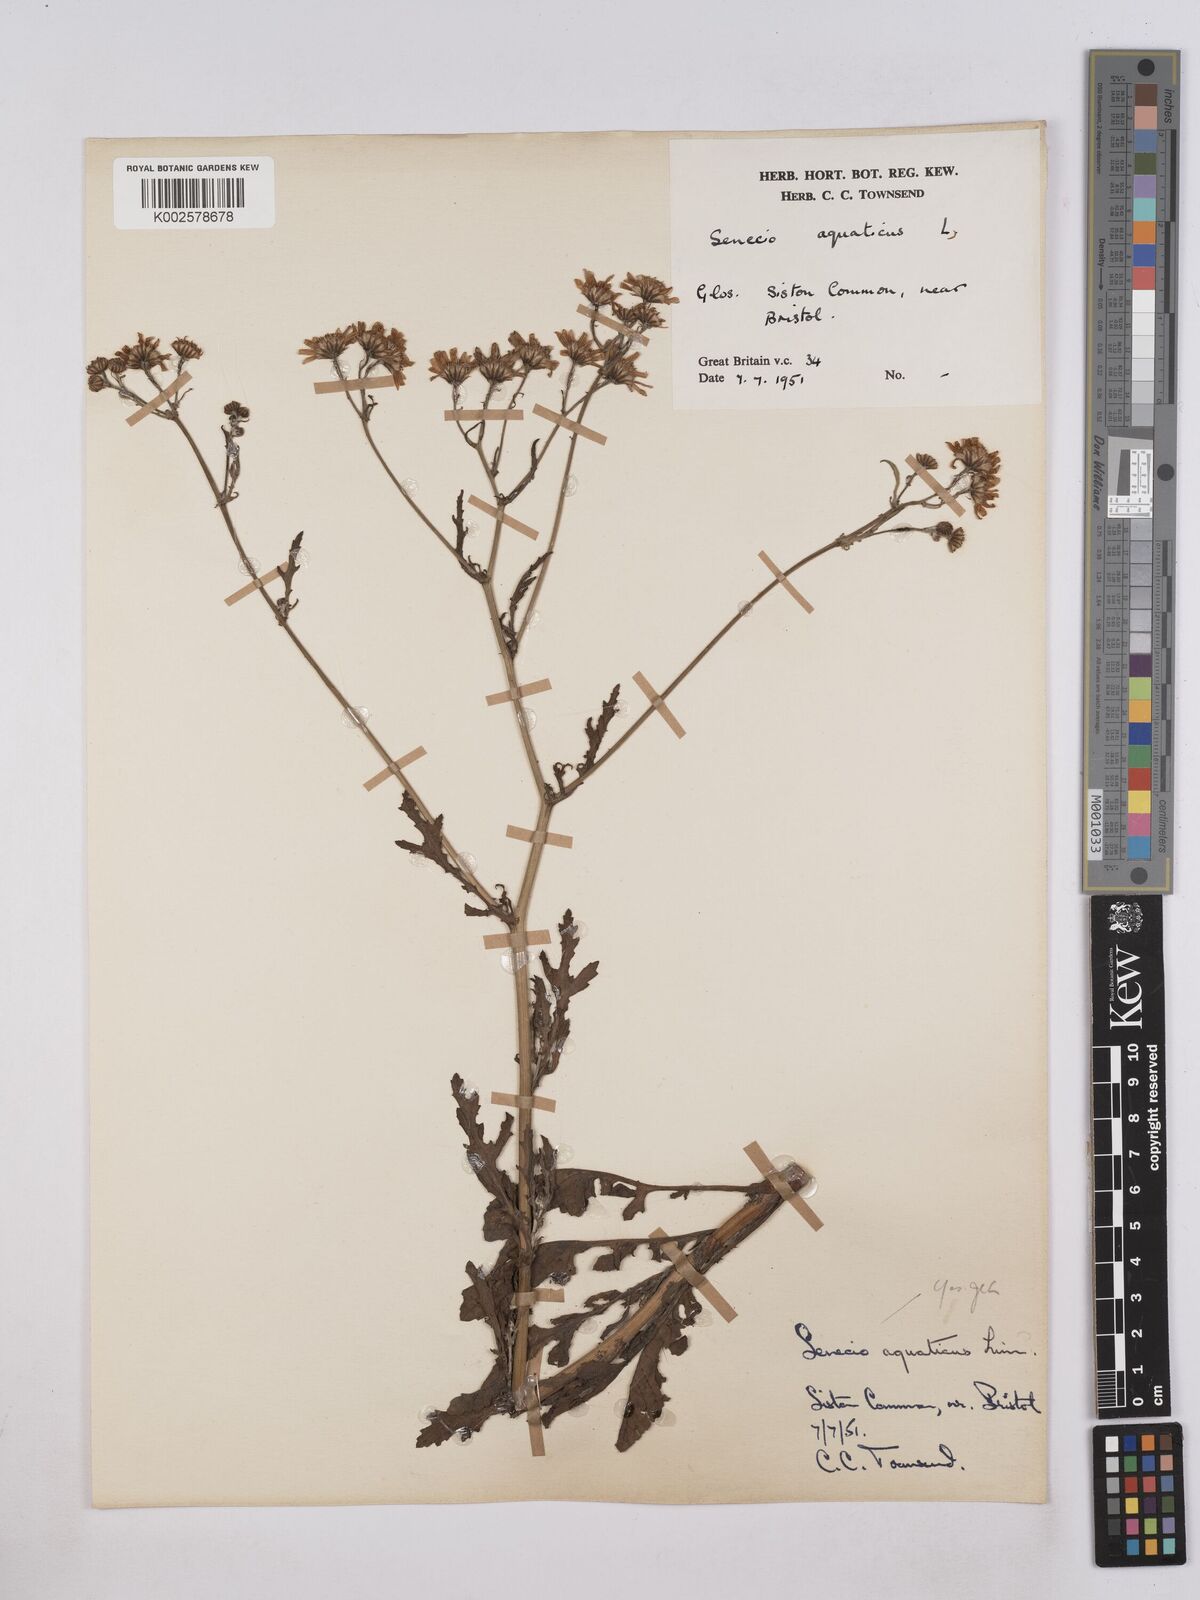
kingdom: Plantae
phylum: Tracheophyta
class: Magnoliopsida
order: Asterales
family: Asteraceae
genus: Jacobaea
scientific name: Jacobaea aquatica
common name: Water ragwort
